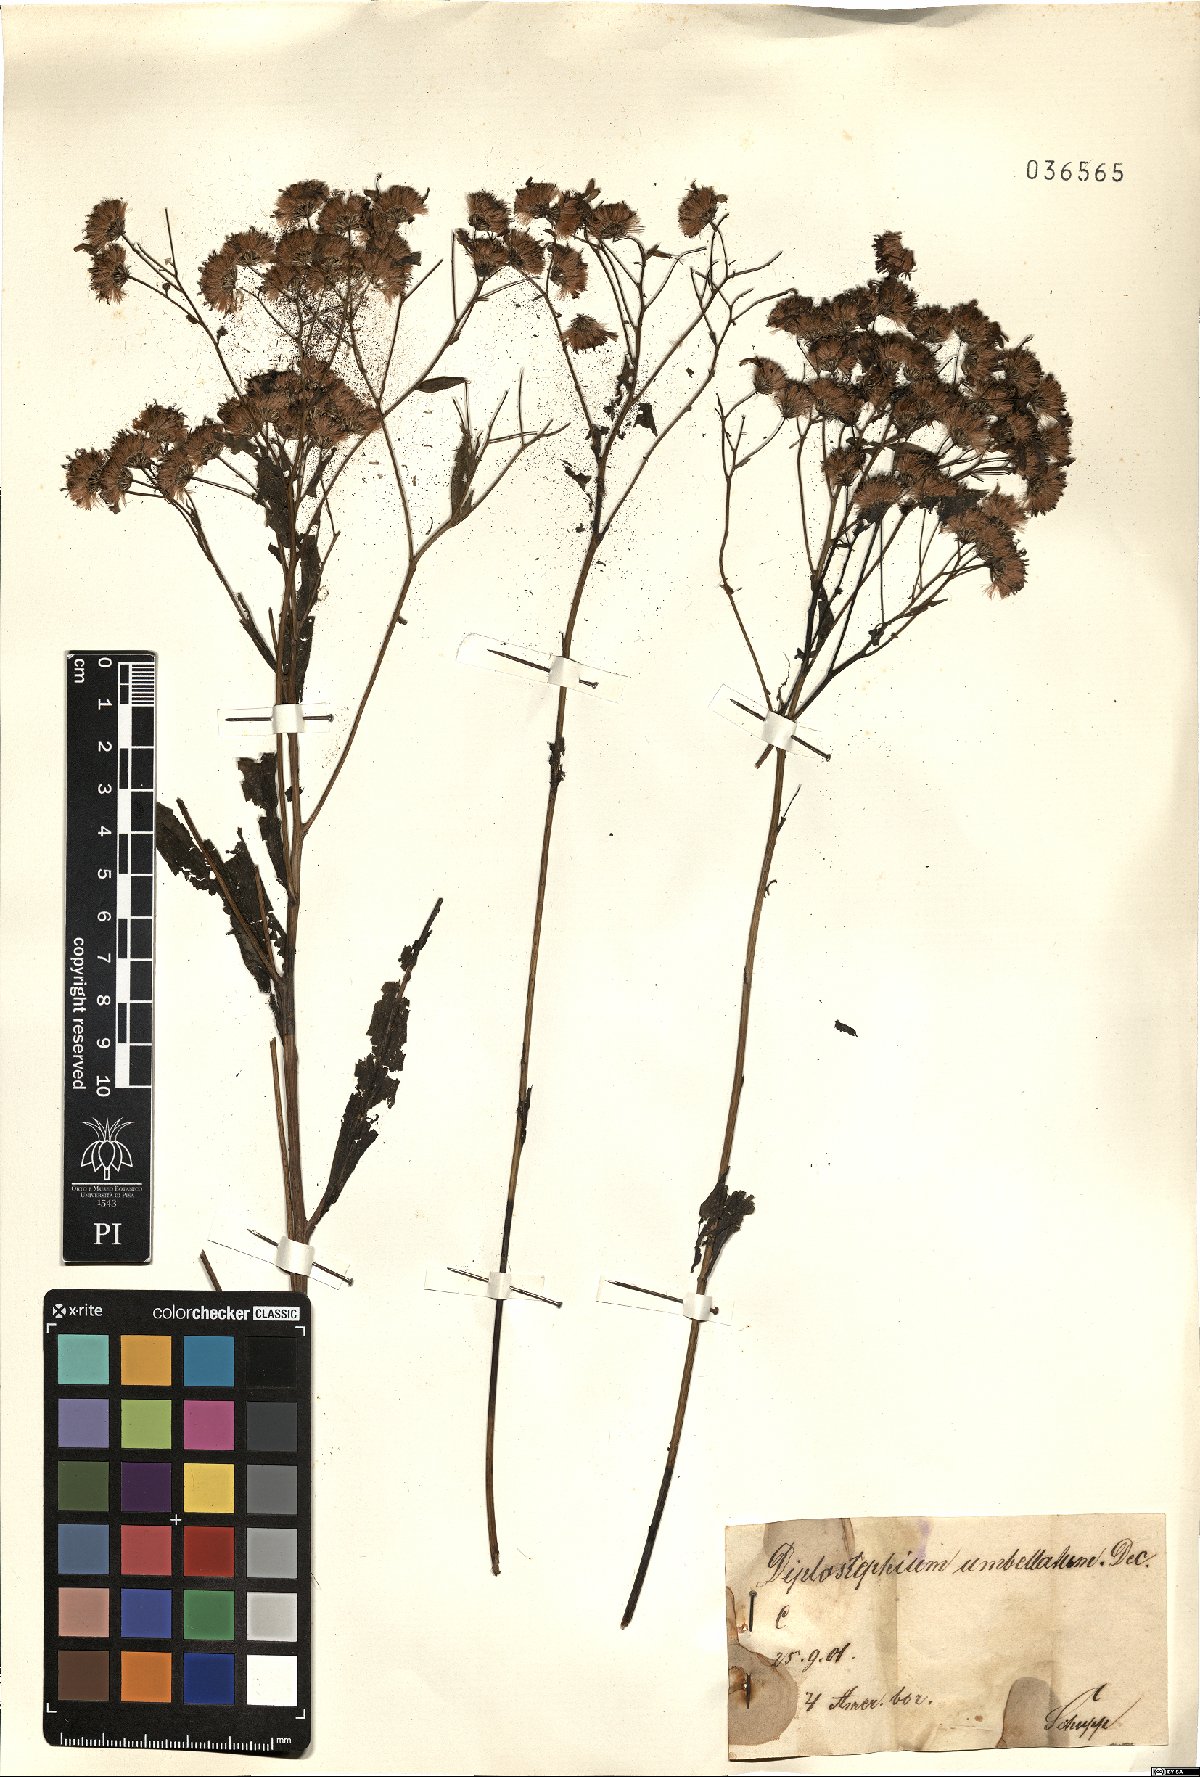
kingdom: Plantae
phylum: Tracheophyta
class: Magnoliopsida
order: Asterales
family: Asteraceae
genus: Doellingeria
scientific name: Doellingeria umbellata
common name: Flat-top white aster
